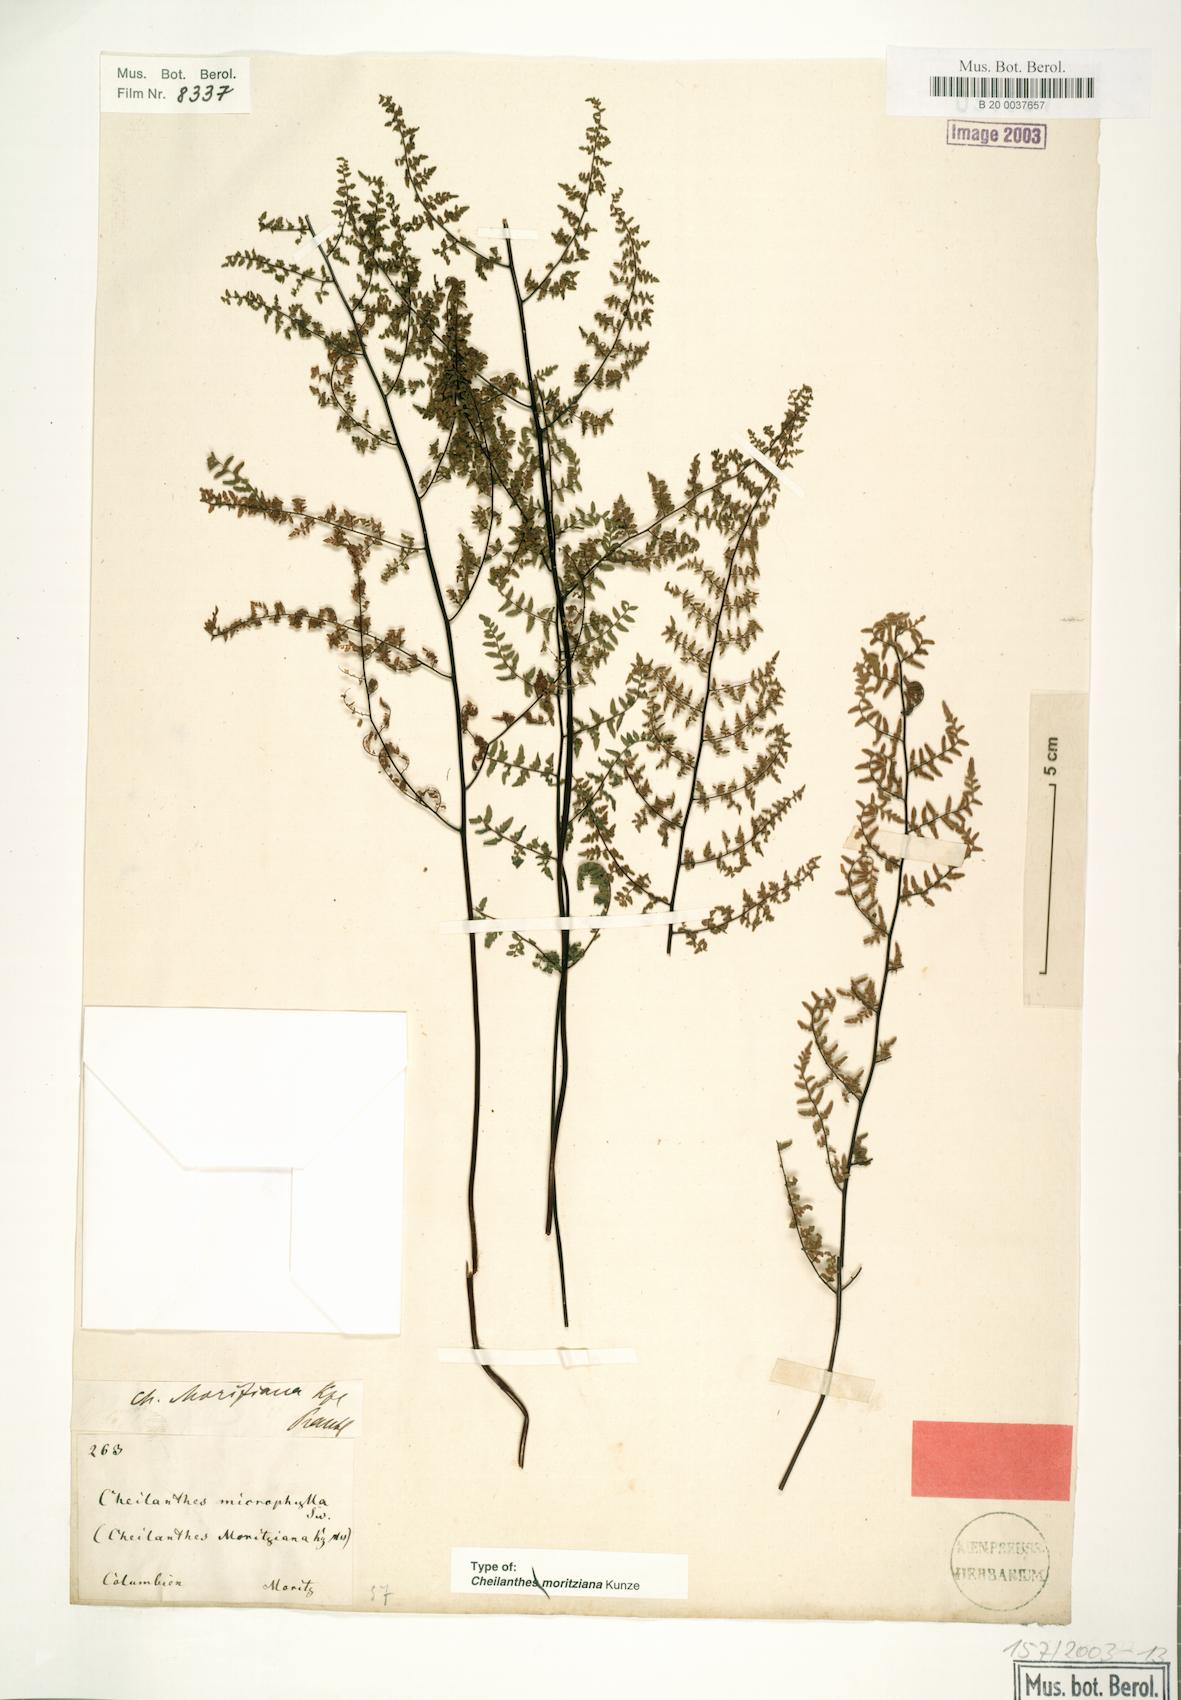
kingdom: Plantae
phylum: Tracheophyta
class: Polypodiopsida
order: Polypodiales
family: Pteridaceae
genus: Myriopteris
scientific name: Myriopteris moritziana
